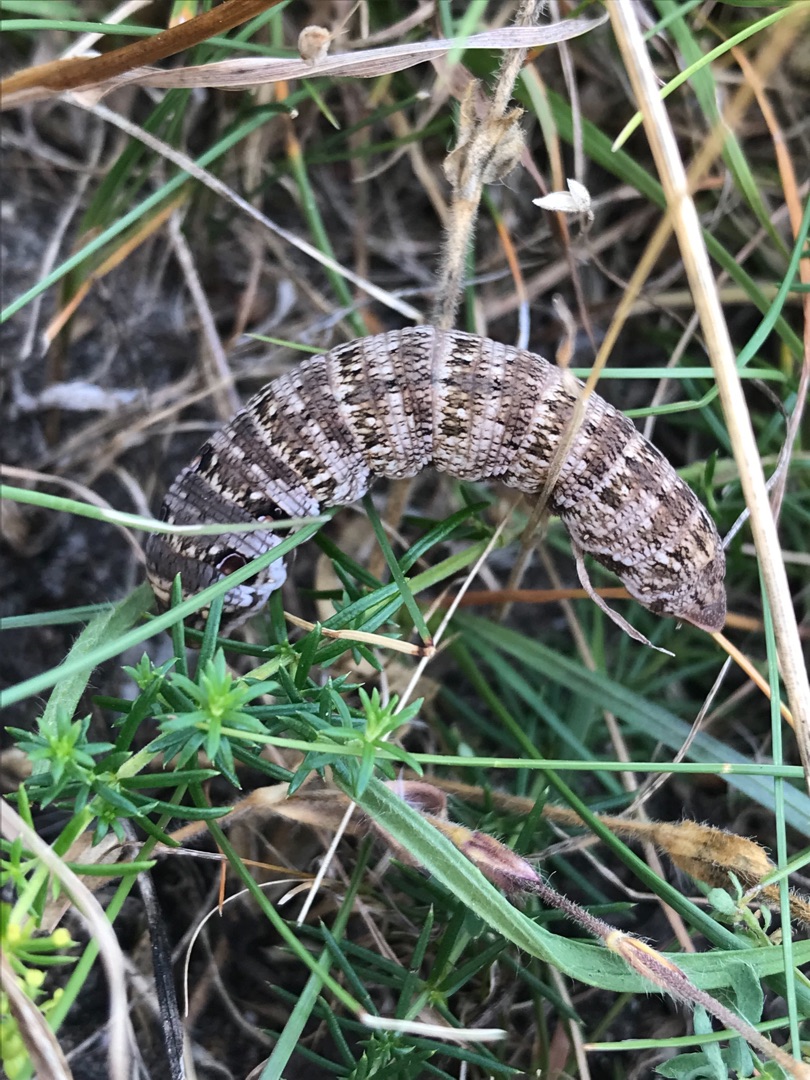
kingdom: Animalia
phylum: Arthropoda
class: Insecta
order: Lepidoptera
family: Sphingidae
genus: Deilephila
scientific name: Deilephila porcellus
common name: Lille vinsværmer
